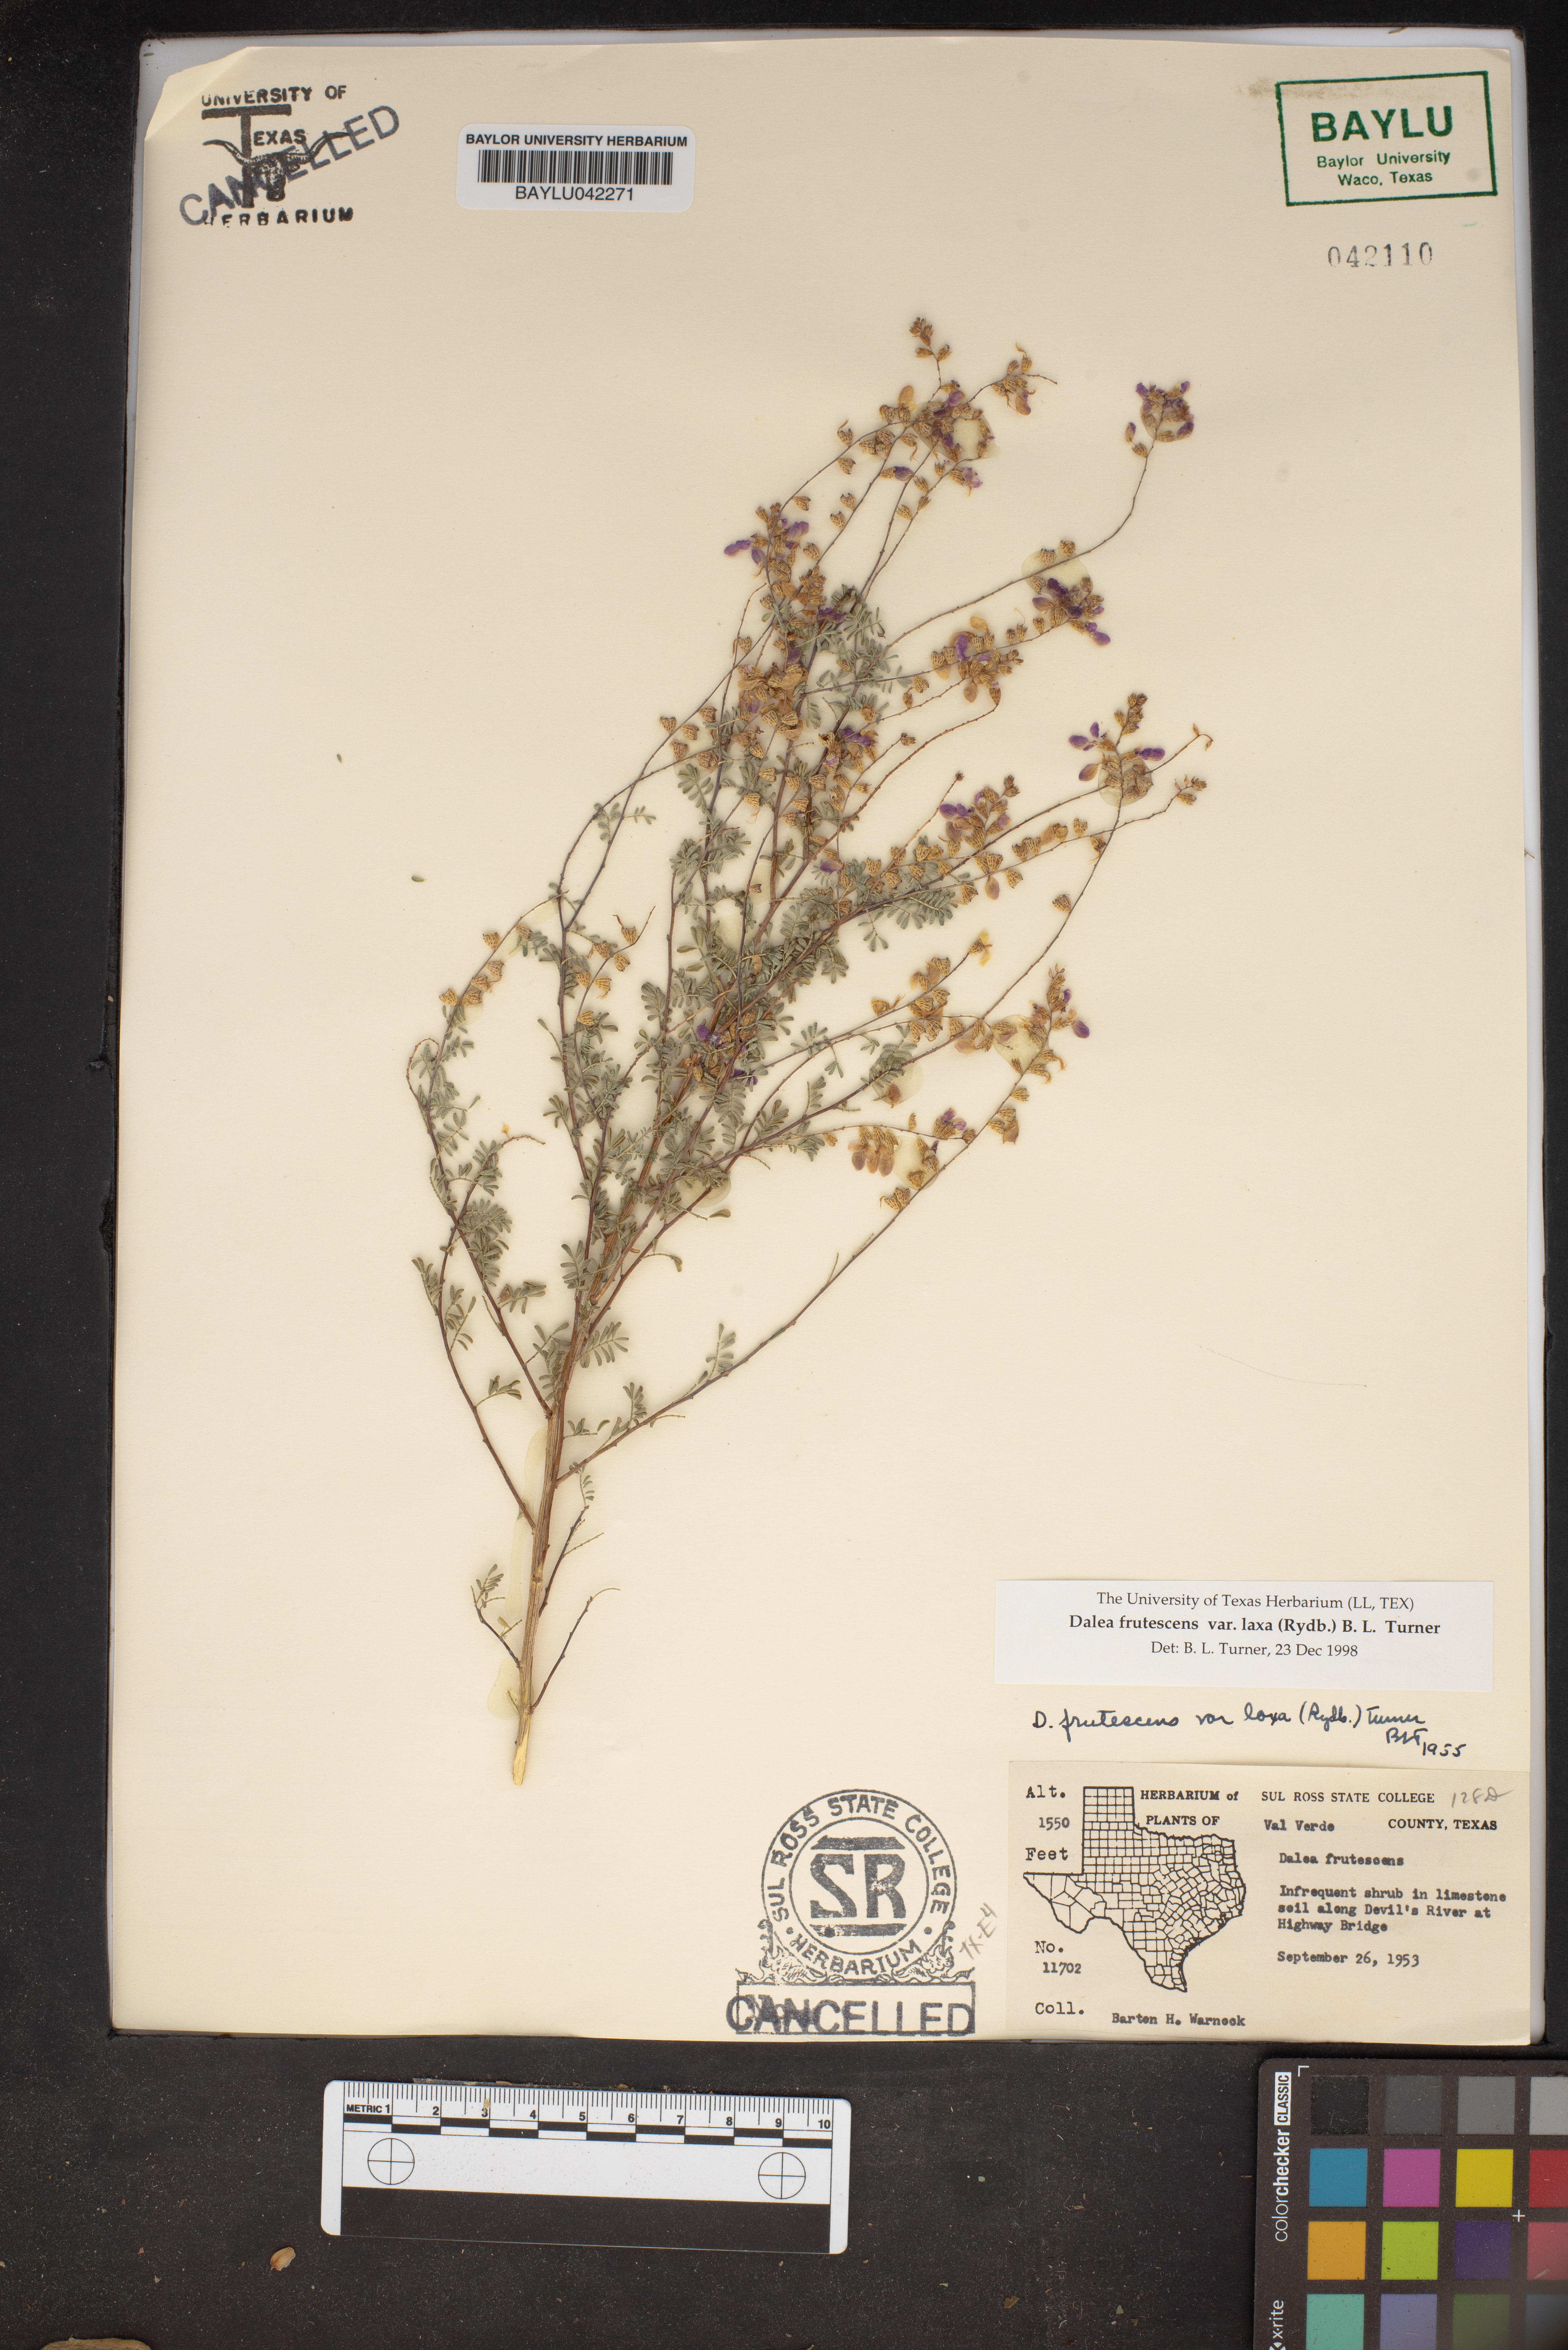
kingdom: Plantae
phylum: Tracheophyta
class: Magnoliopsida
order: Fabales
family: Fabaceae
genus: Dalea
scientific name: Dalea frutescens
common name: Black dalea
